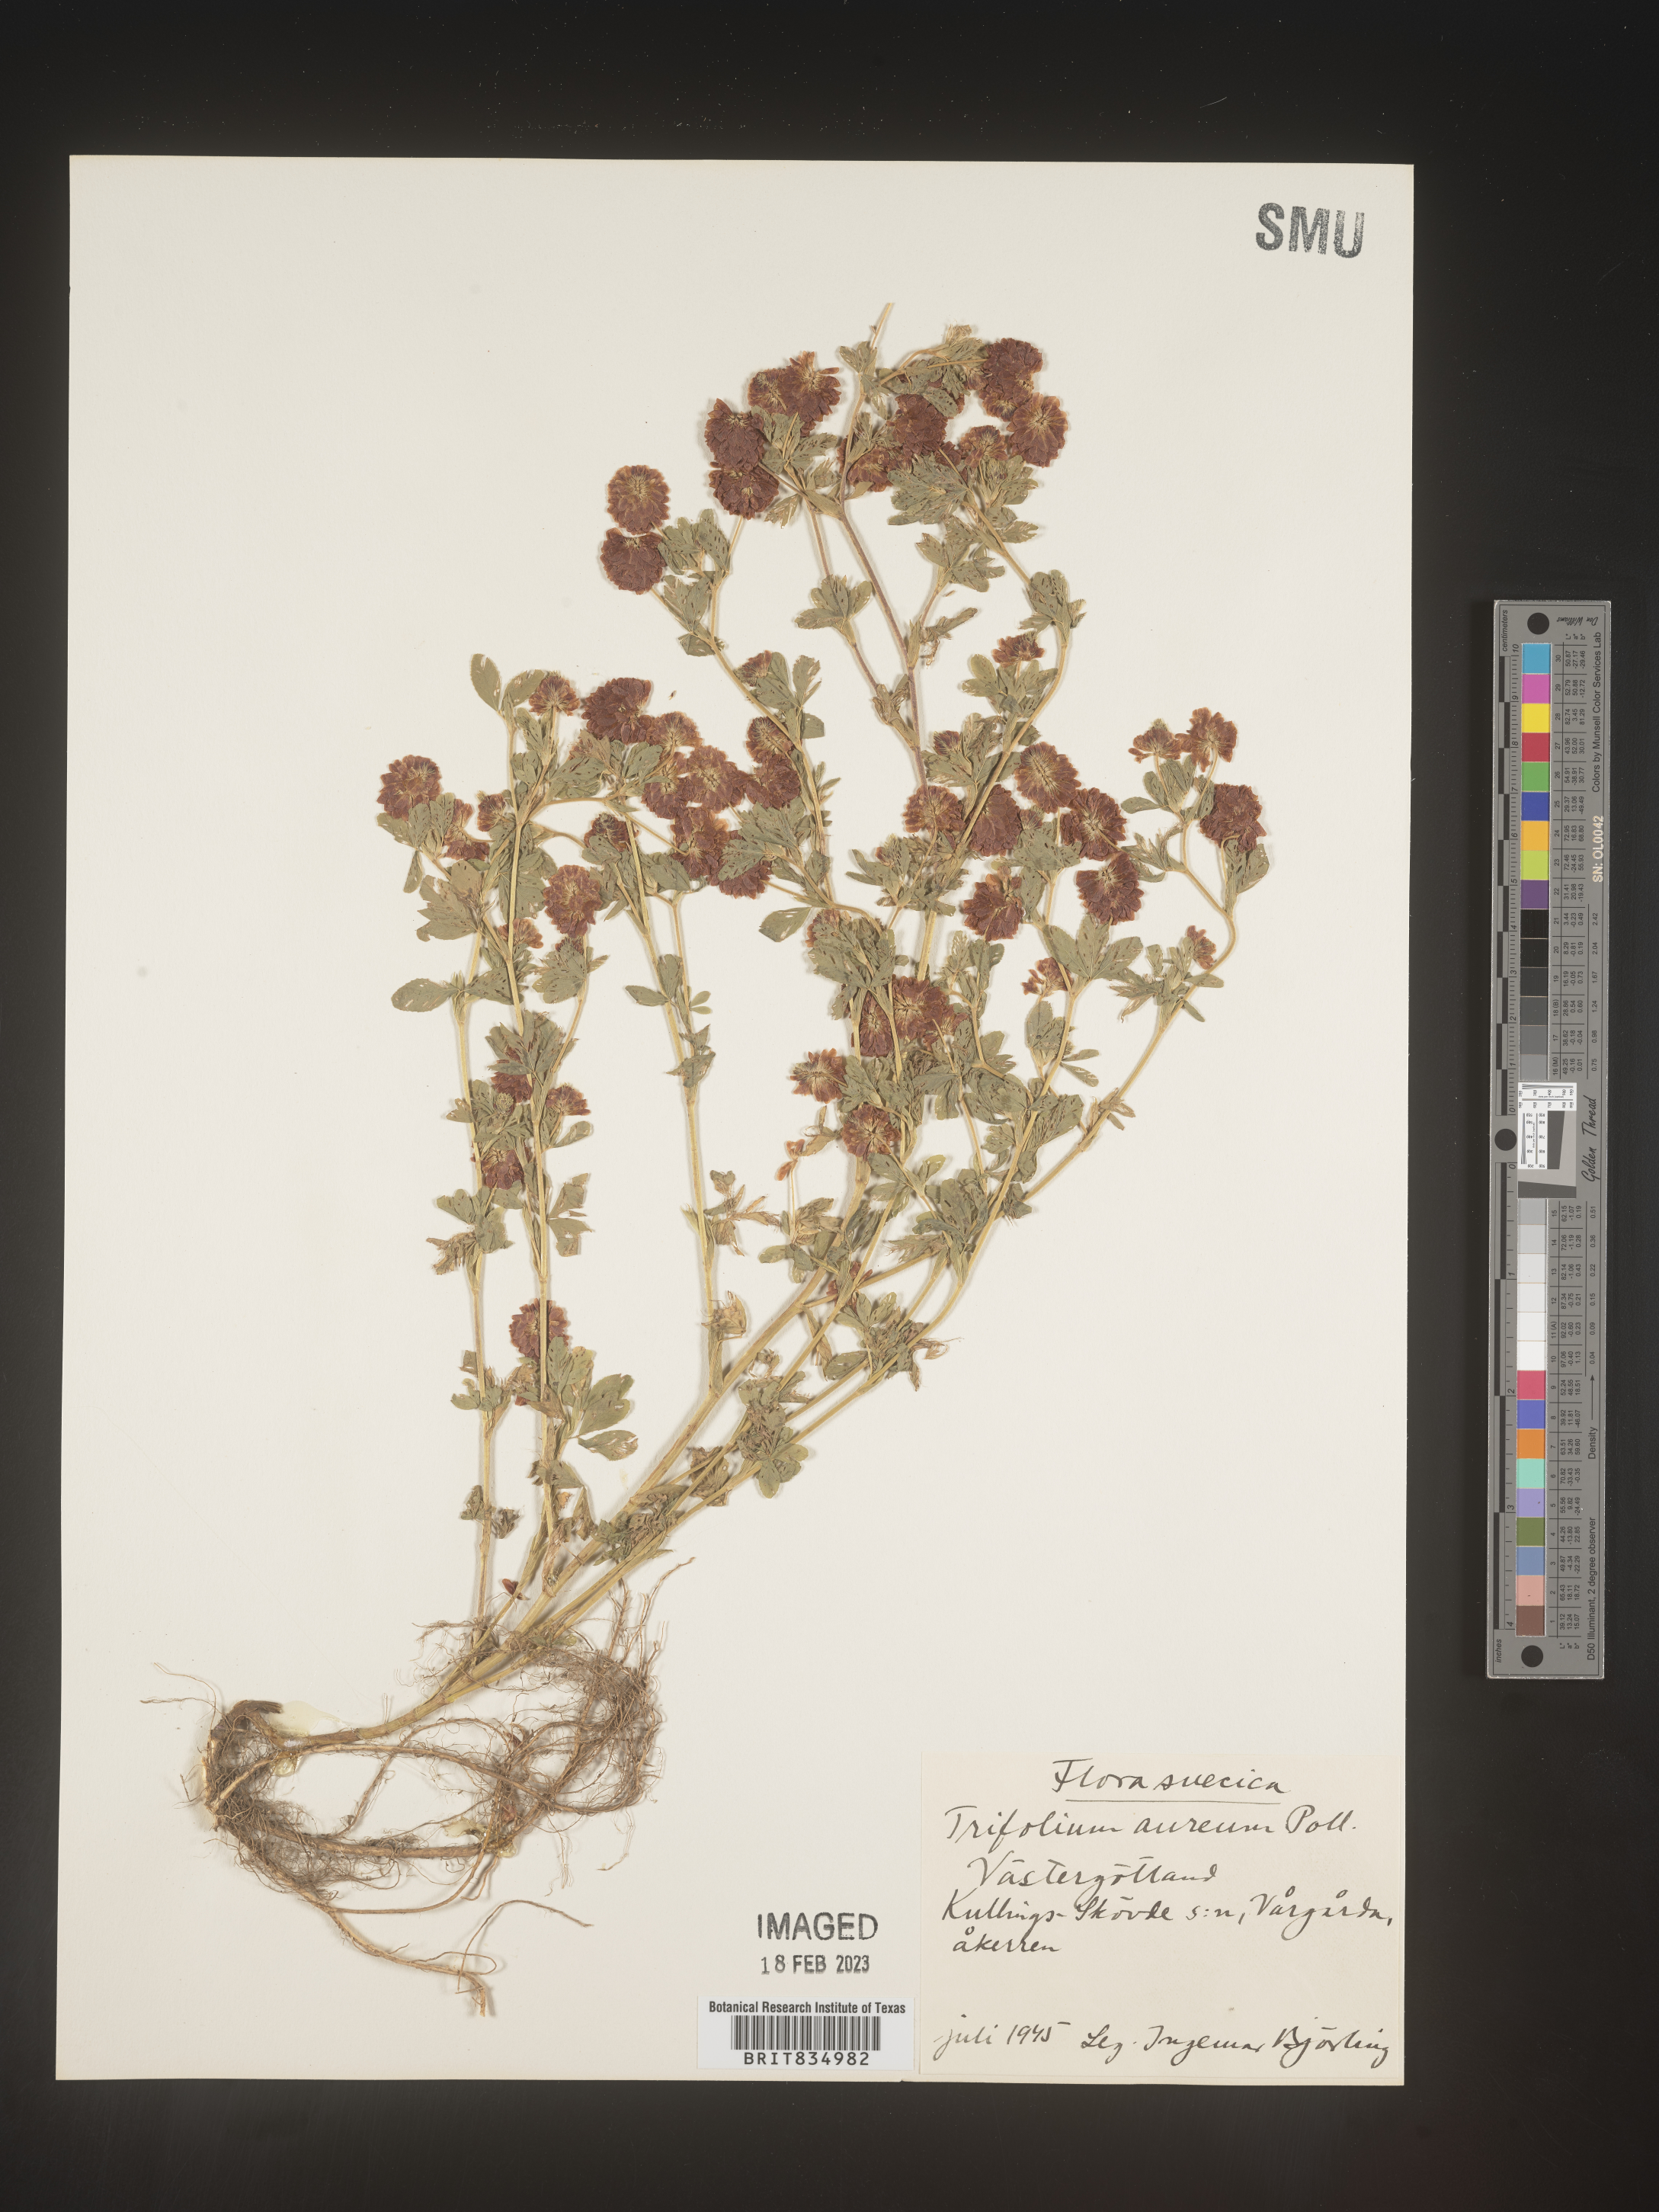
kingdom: Plantae
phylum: Tracheophyta
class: Magnoliopsida
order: Fabales
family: Fabaceae
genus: Trifolium
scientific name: Trifolium
